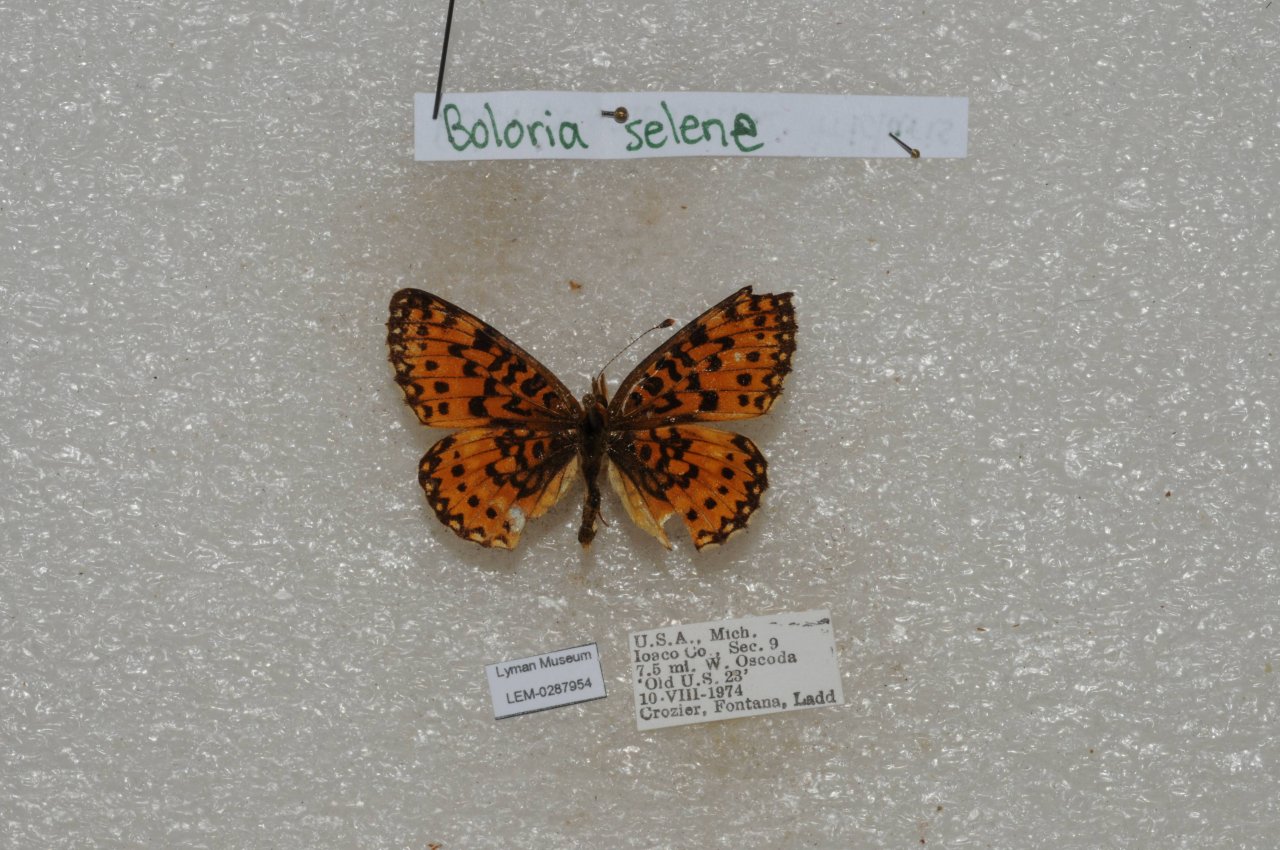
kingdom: Animalia
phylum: Arthropoda
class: Insecta
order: Lepidoptera
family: Nymphalidae
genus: Boloria
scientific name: Boloria
